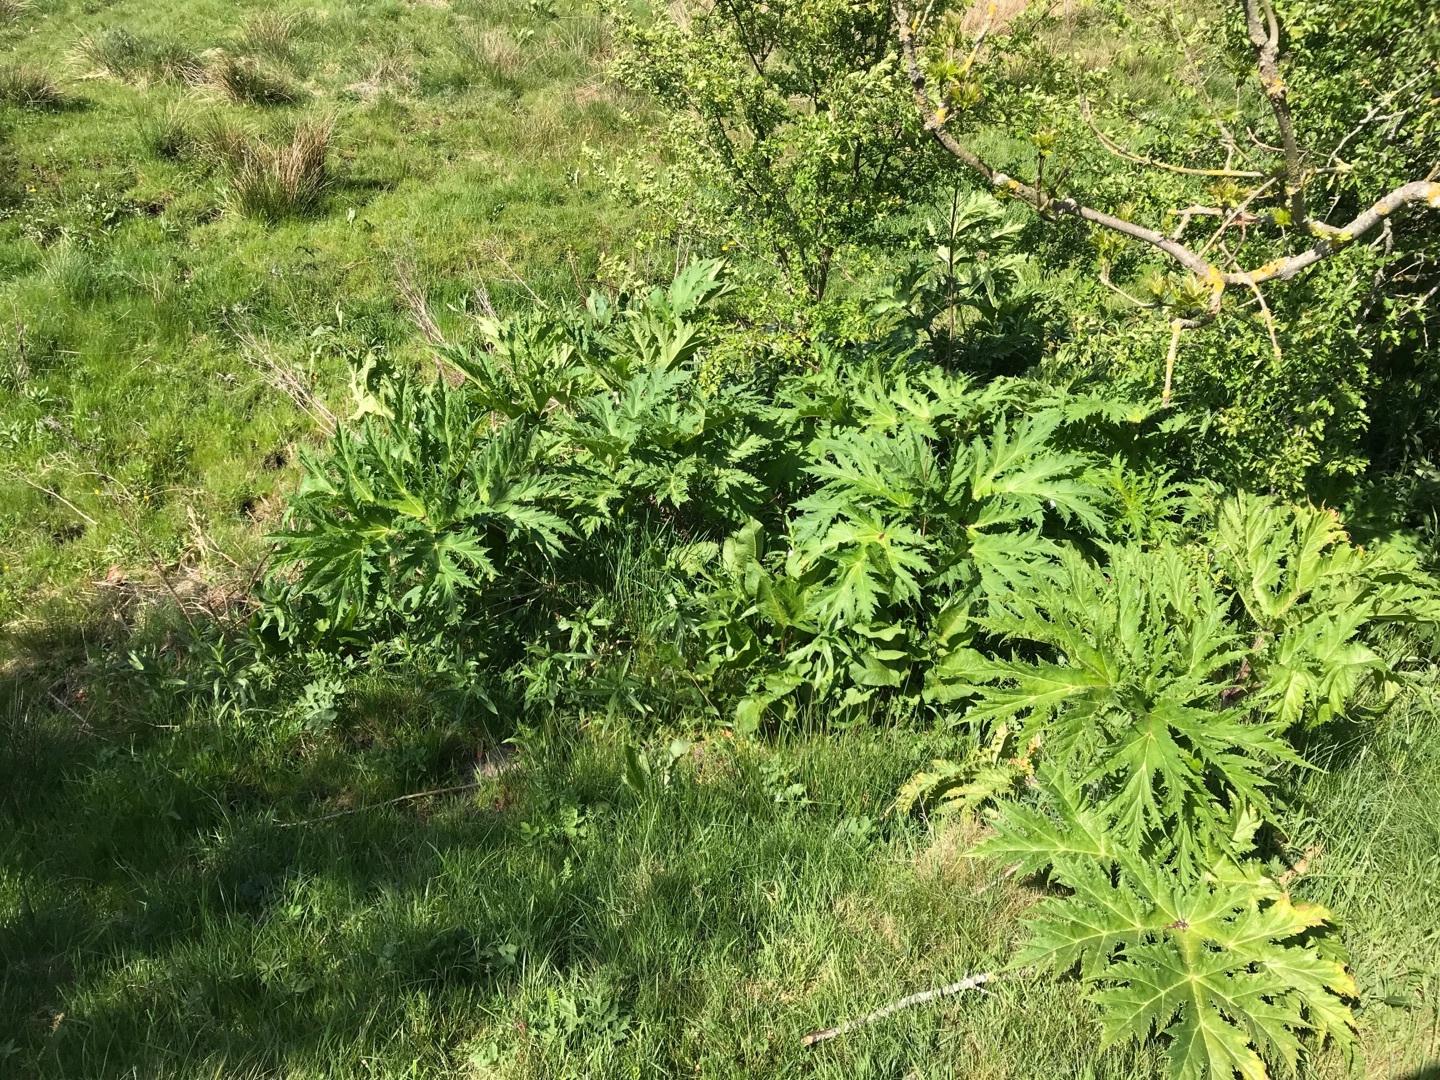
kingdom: Plantae
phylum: Tracheophyta
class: Magnoliopsida
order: Apiales
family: Apiaceae
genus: Heracleum
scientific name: Heracleum mantegazzianum
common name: Kæmpe-bjørneklo
